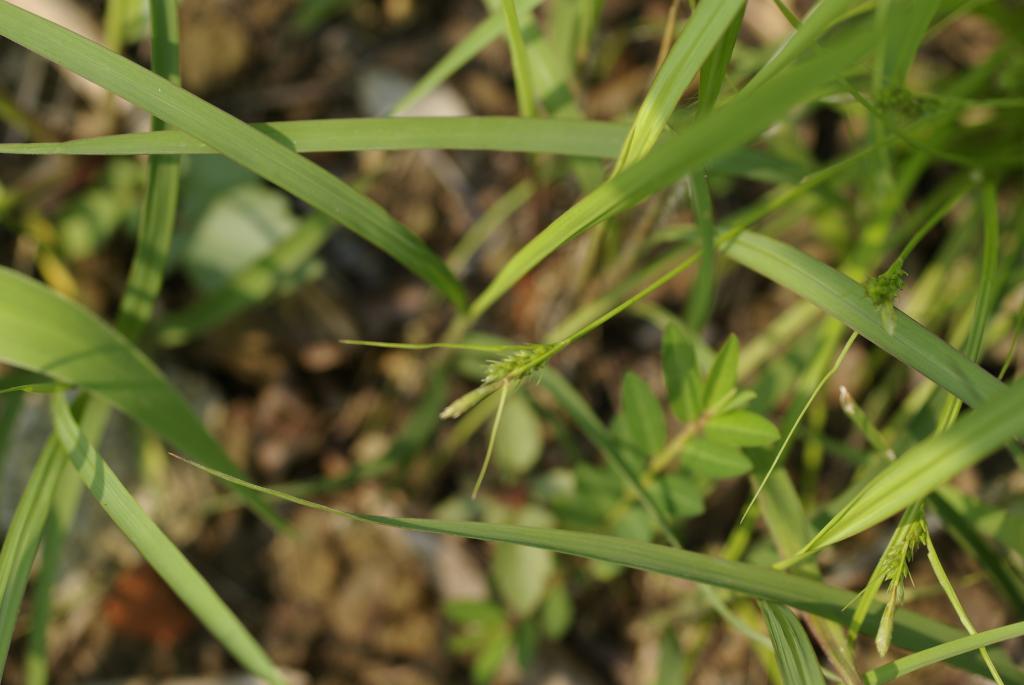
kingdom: Plantae
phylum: Tracheophyta
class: Liliopsida
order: Poales
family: Cyperaceae
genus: Carex
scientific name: Carex breviculmis
